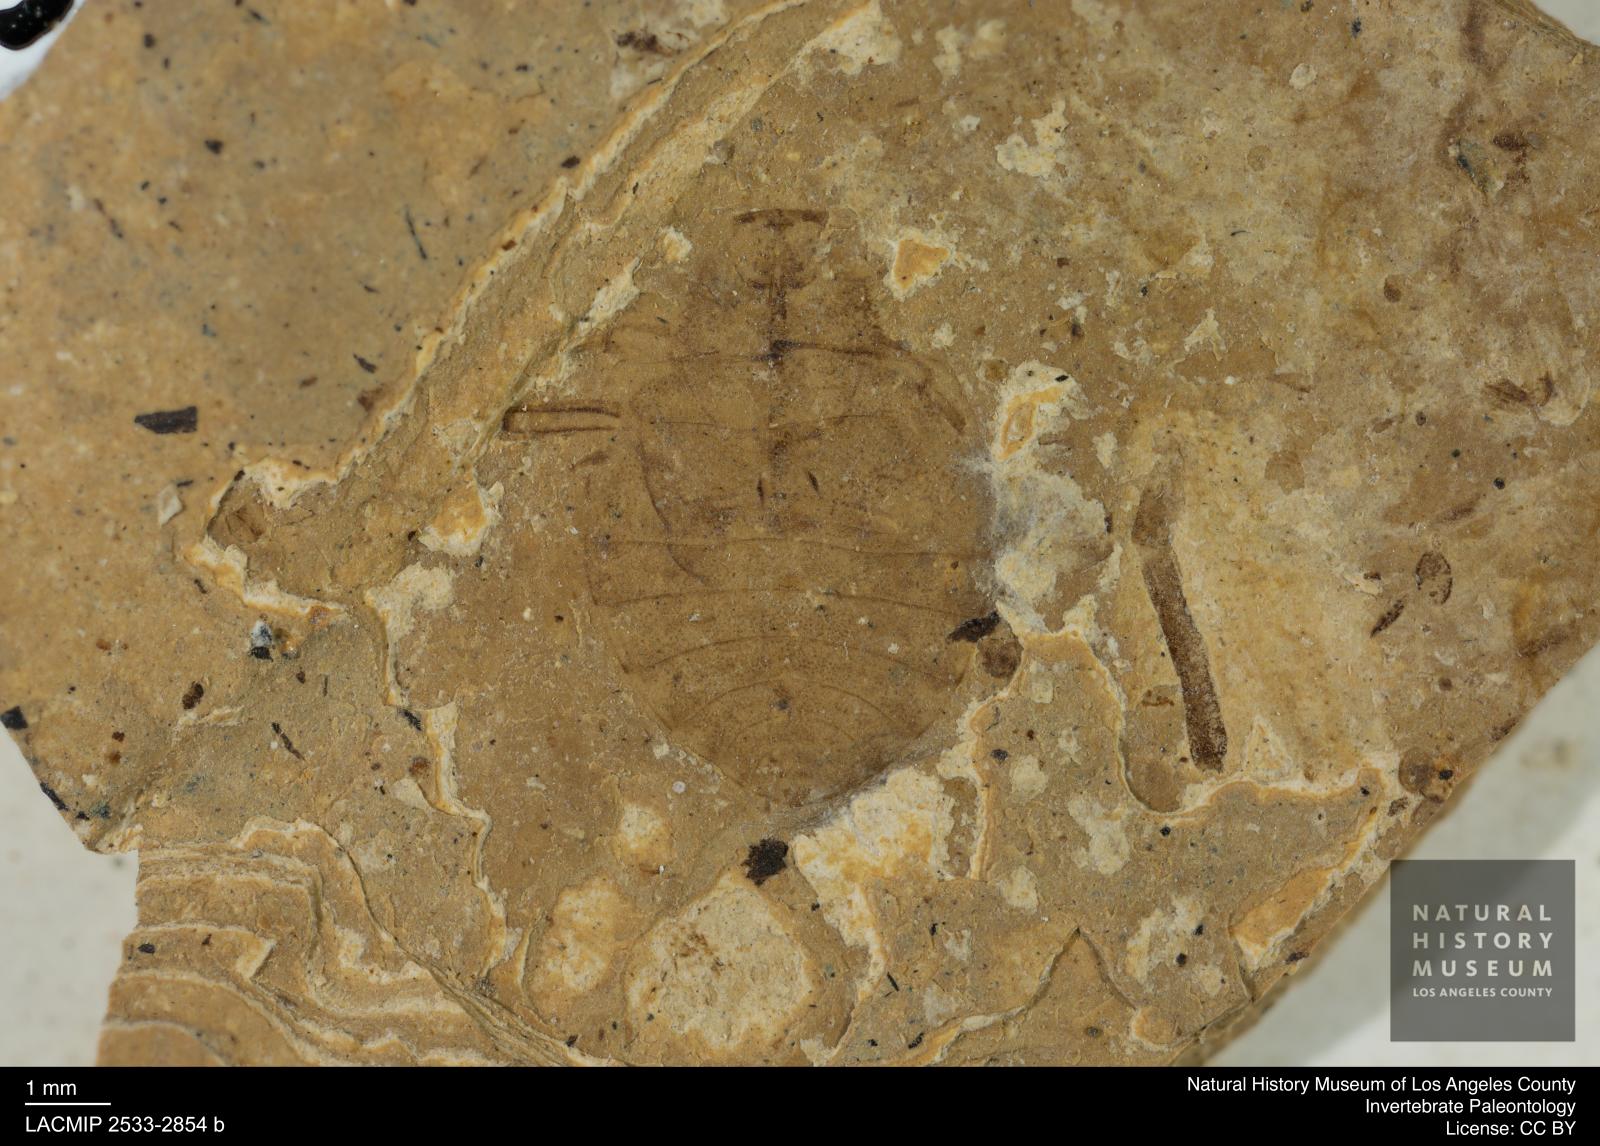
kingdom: Animalia
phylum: Arthropoda
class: Insecta
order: Hemiptera
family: Naucoridae
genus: Naucoris
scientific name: Naucoris rottensis
